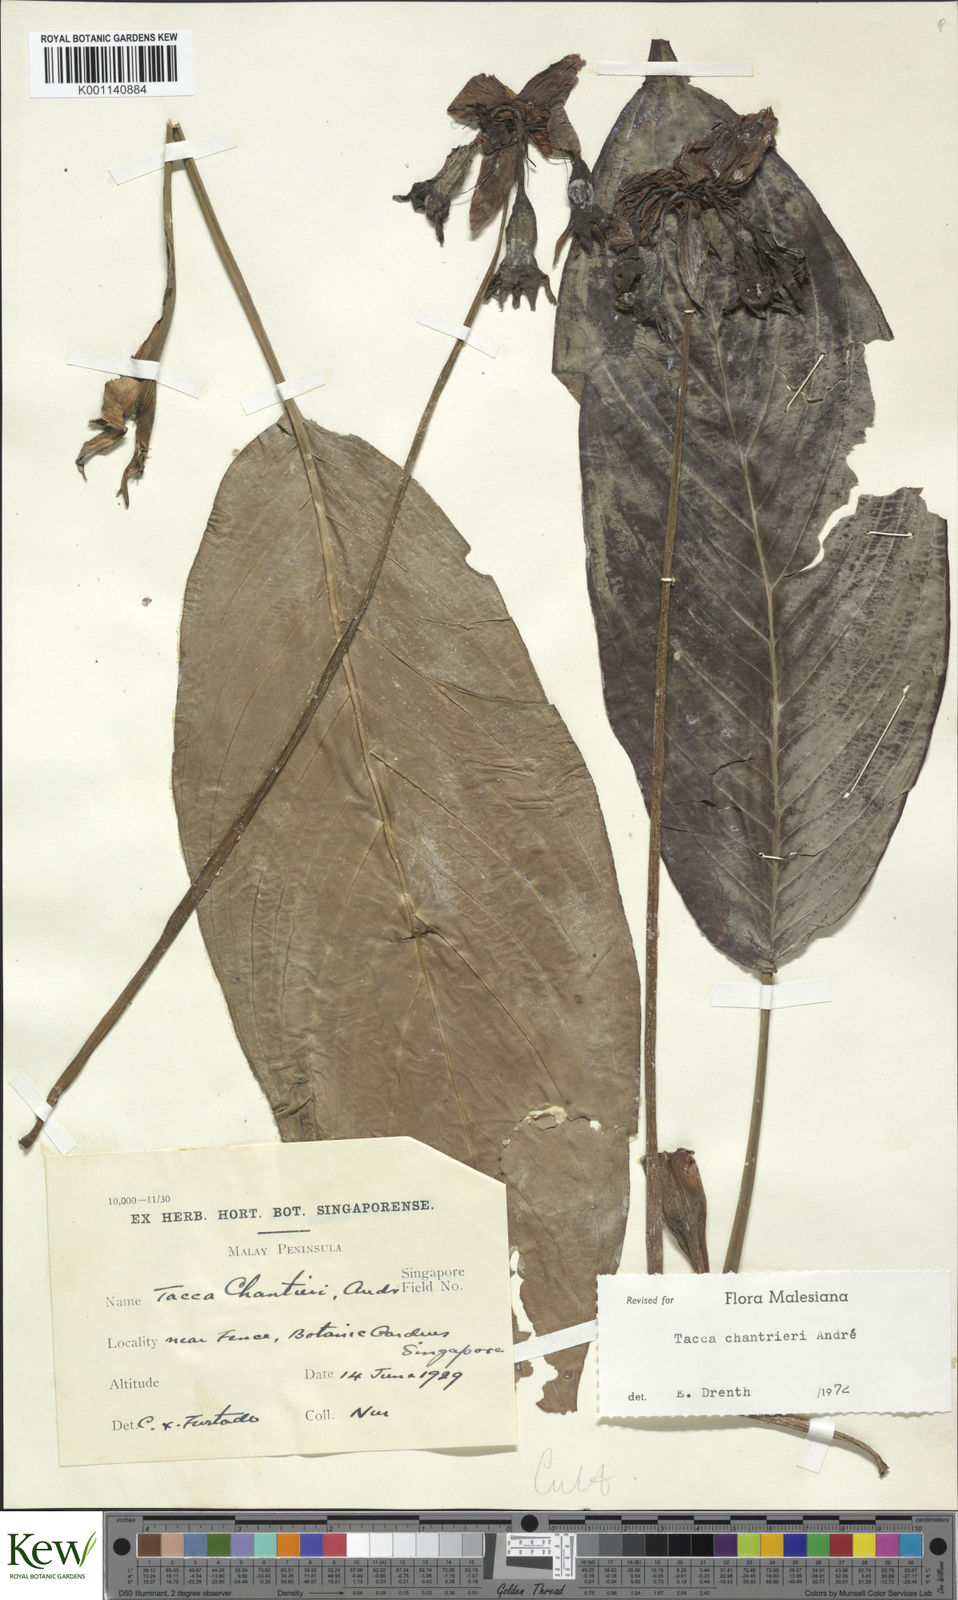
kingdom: Plantae
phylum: Tracheophyta
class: Liliopsida
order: Dioscoreales
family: Dioscoreaceae
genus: Tacca
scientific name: Tacca
